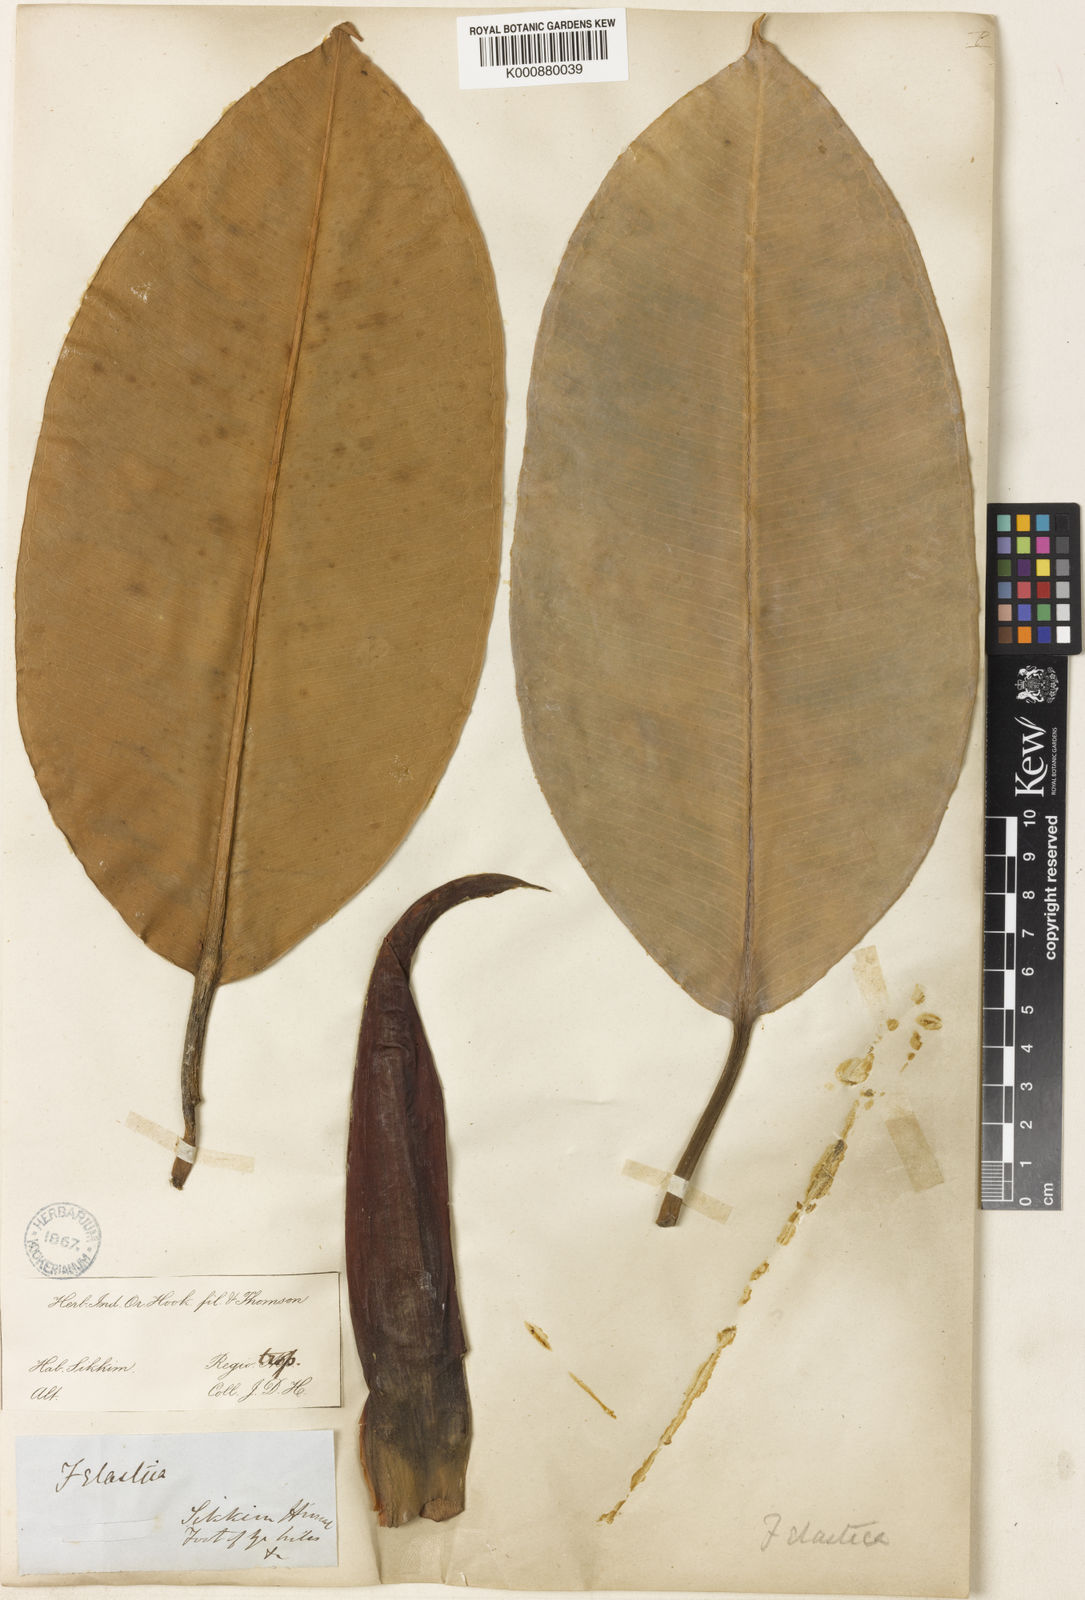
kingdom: Plantae
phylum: Tracheophyta
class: Magnoliopsida
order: Rosales
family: Moraceae
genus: Ficus
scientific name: Ficus
